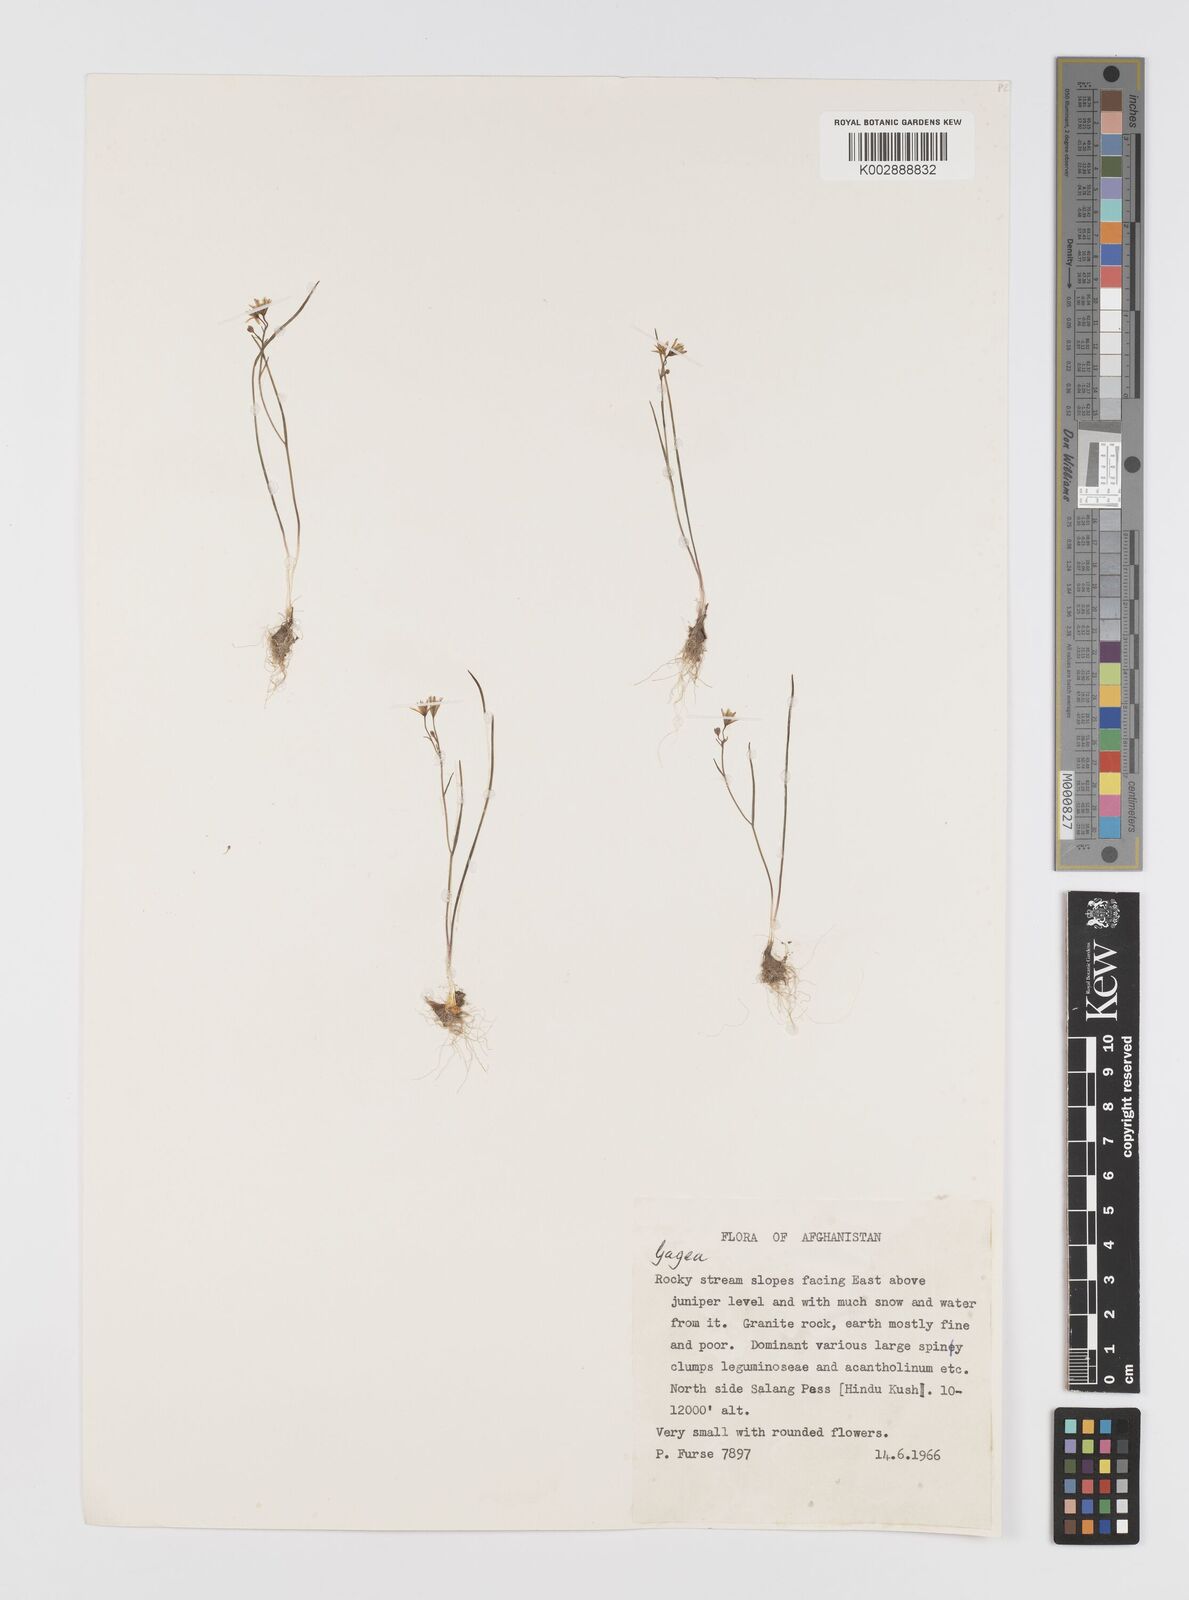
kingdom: Plantae
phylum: Tracheophyta
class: Liliopsida
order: Liliales
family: Liliaceae
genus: Gagea
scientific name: Gagea
